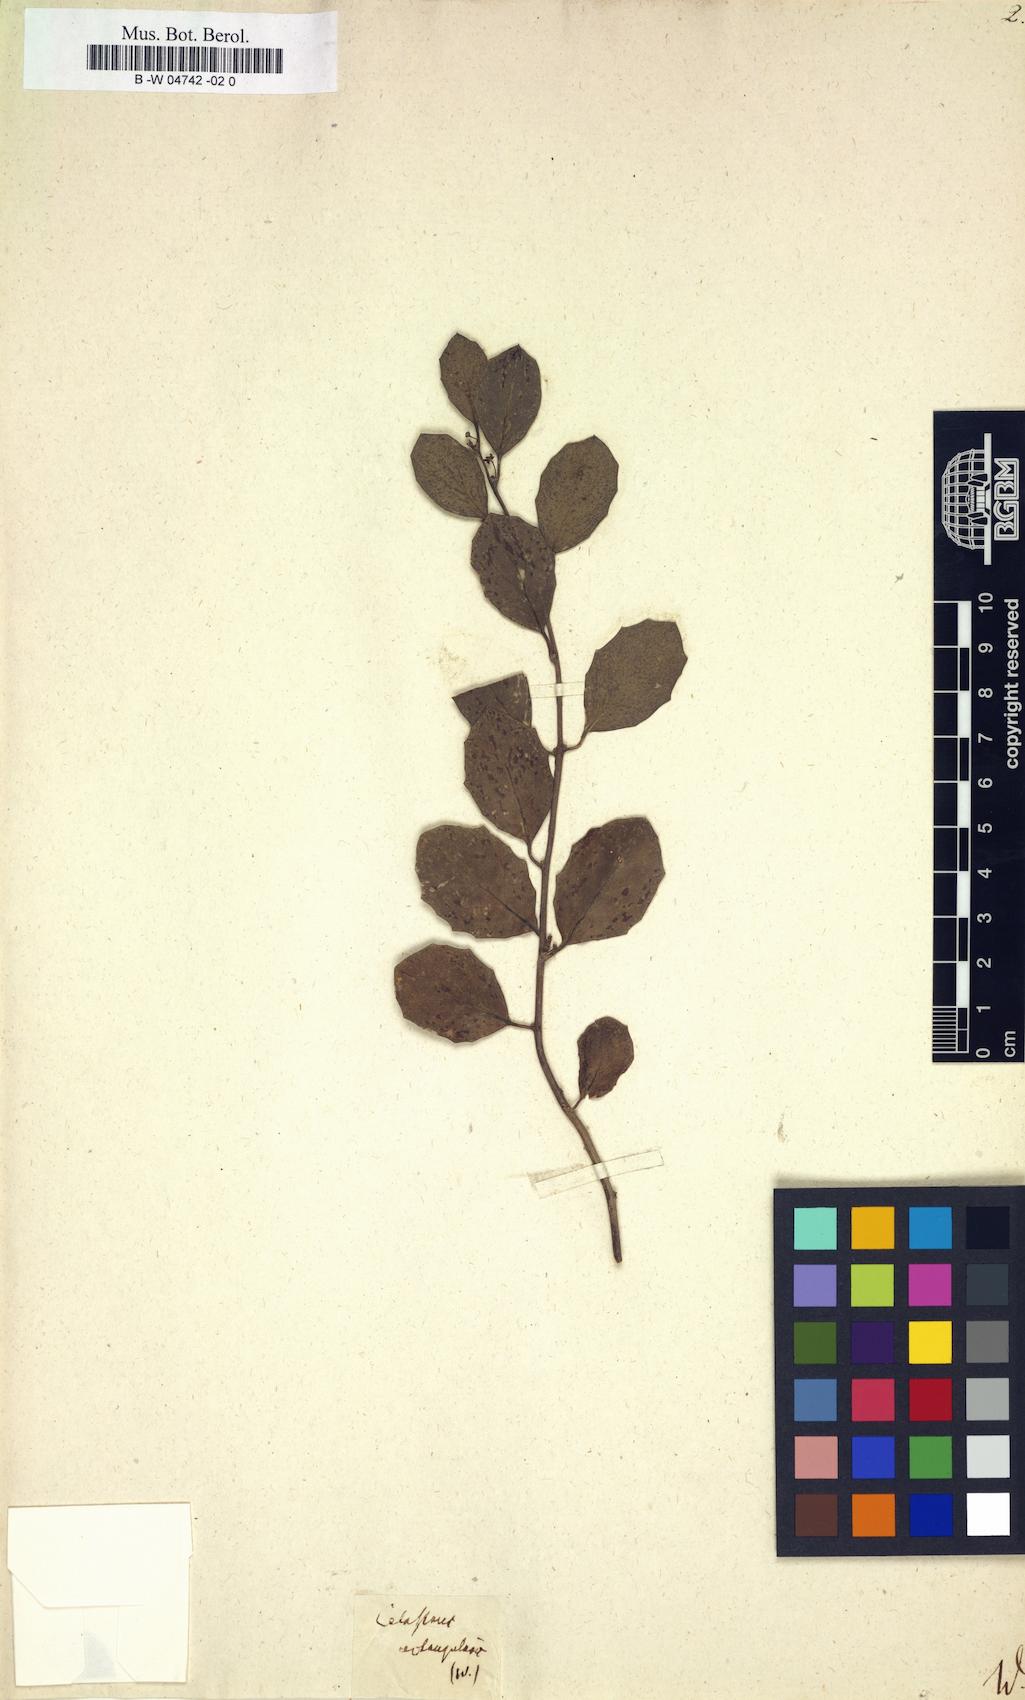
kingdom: Plantae
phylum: Tracheophyta
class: Magnoliopsida
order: Celastrales
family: Celastraceae
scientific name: Celastraceae
